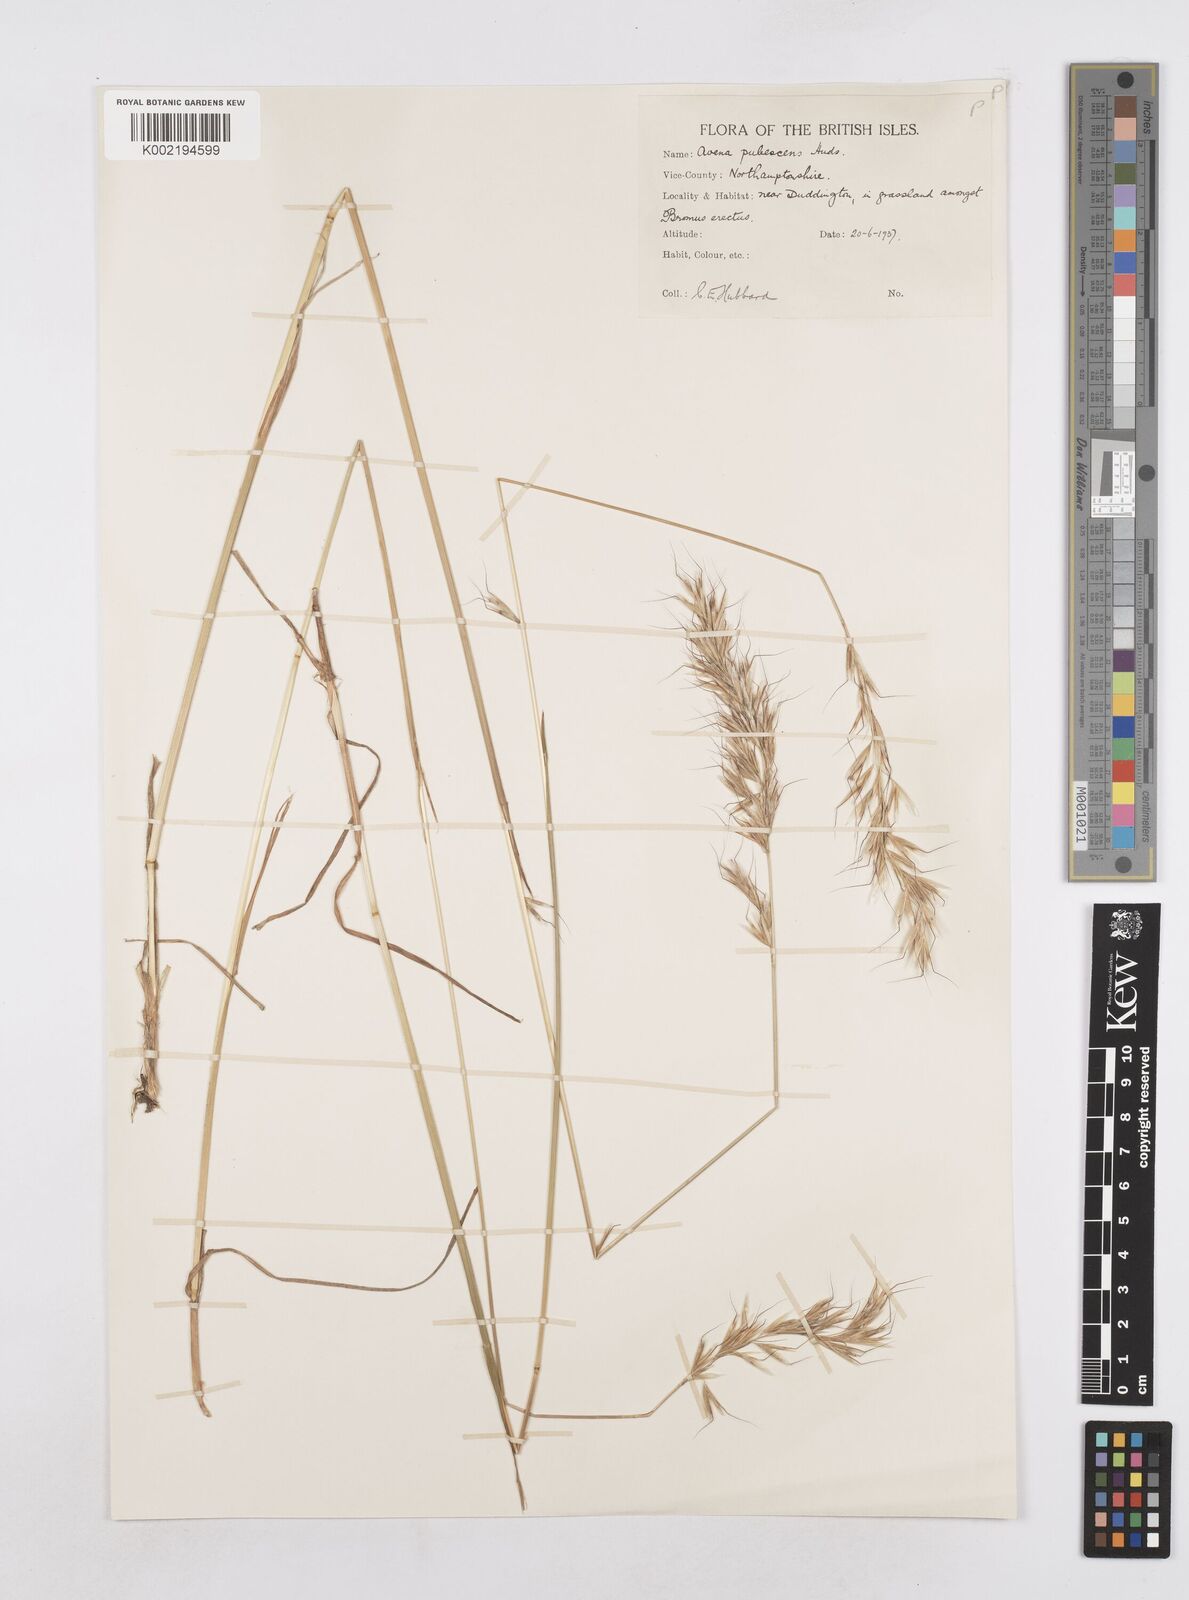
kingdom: Plantae
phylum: Tracheophyta
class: Liliopsida
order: Poales
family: Poaceae
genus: Avenula
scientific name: Avenula pubescens
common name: Downy alpine oatgrass
